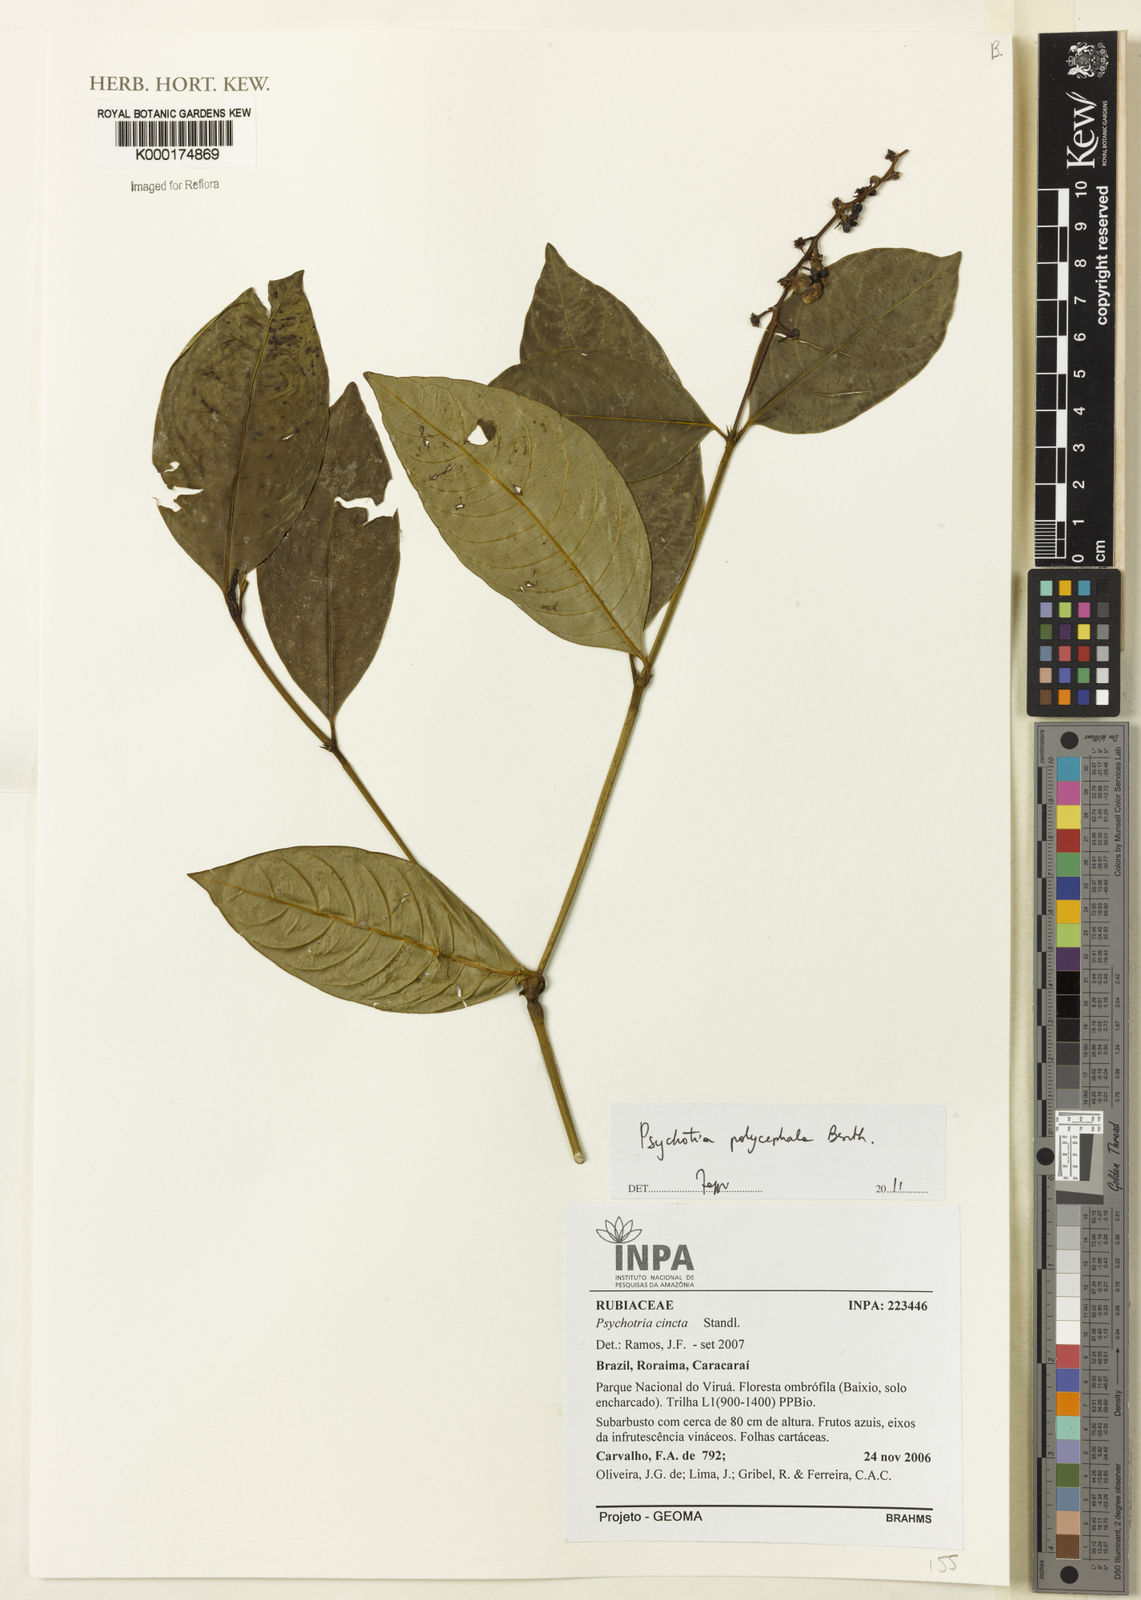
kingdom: Plantae
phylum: Tracheophyta
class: Magnoliopsida
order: Gentianales
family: Rubiaceae
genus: Palicourea
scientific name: Palicourea polycephala
